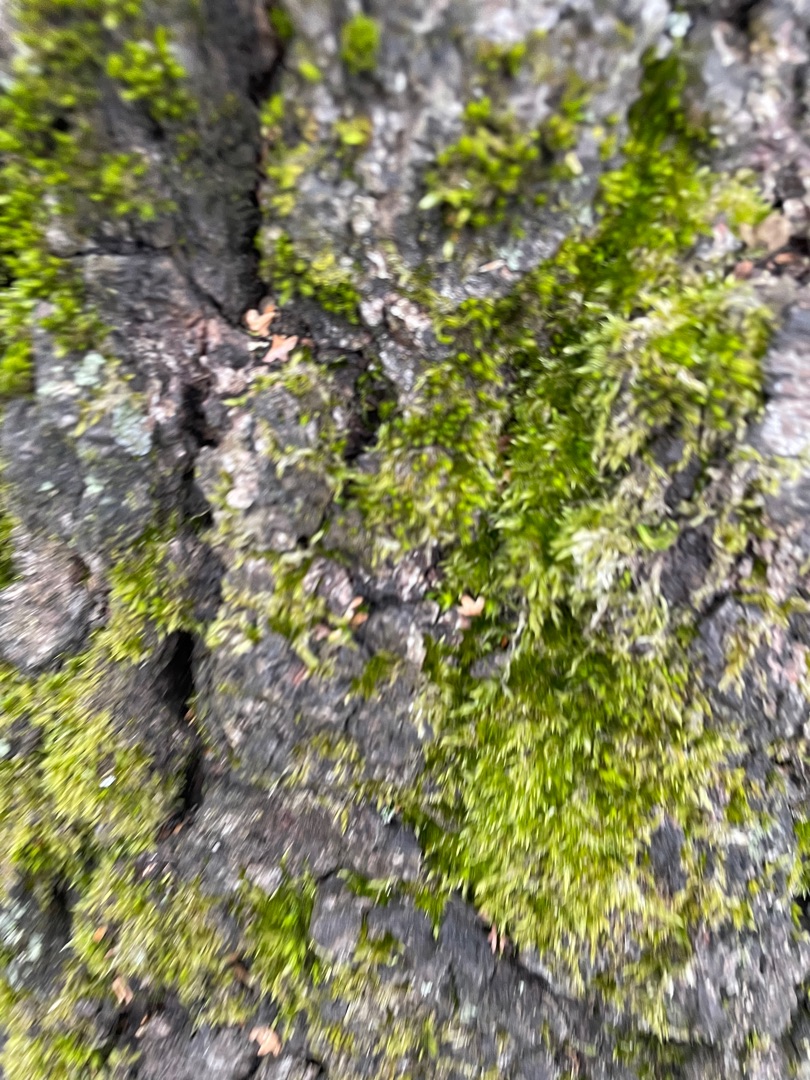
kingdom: Plantae
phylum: Bryophyta
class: Bryopsida
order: Hypnales
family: Hypnaceae
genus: Hypnum
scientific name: Hypnum
